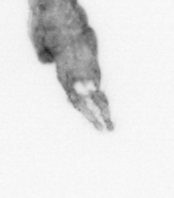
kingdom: Animalia
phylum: Arthropoda
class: Copepoda
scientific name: Copepoda
